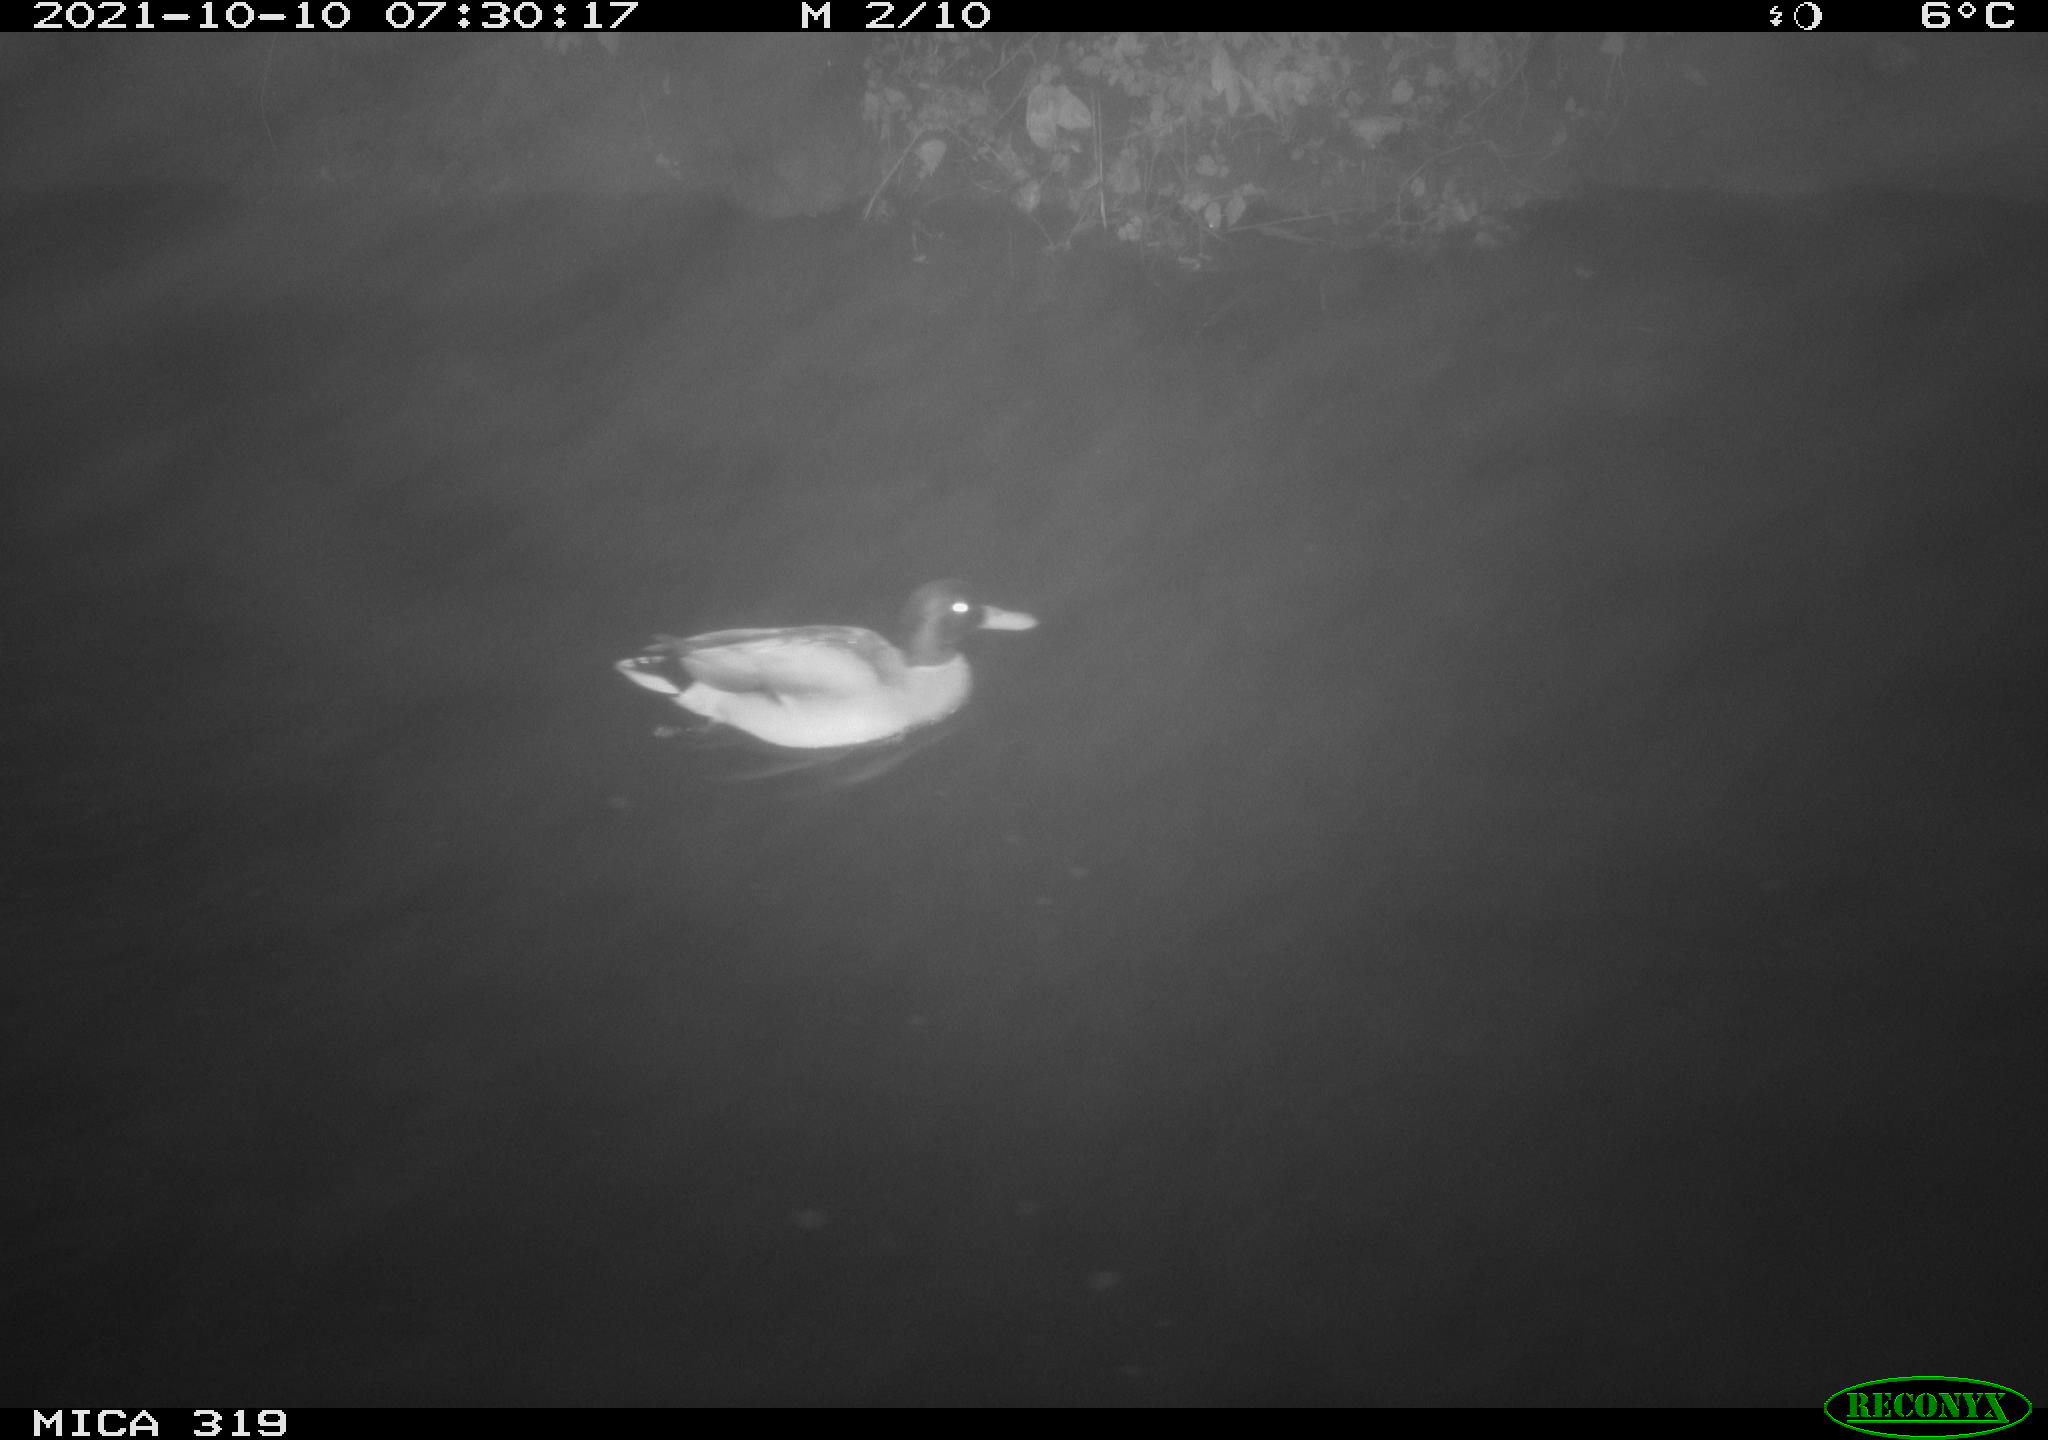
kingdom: Animalia
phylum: Chordata
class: Aves
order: Anseriformes
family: Anatidae
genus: Anas
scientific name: Anas platyrhynchos
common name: Mallard
